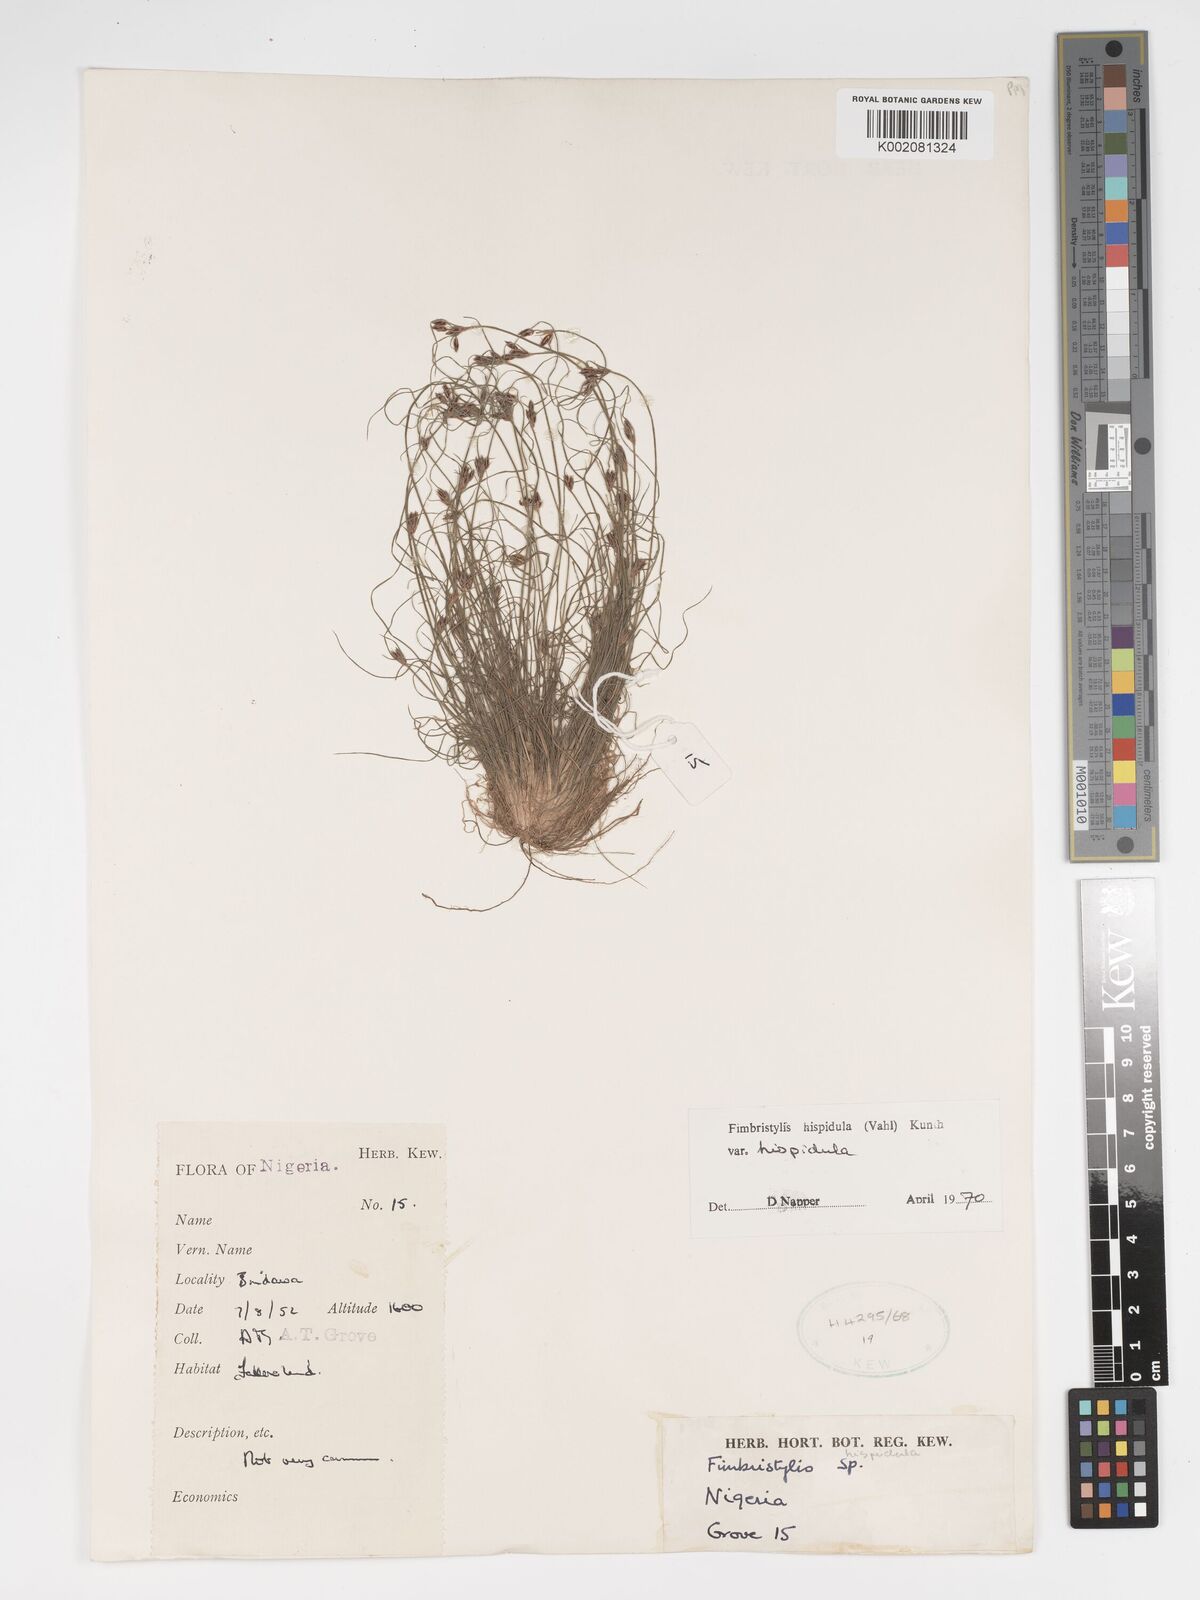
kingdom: Plantae
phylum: Tracheophyta
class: Liliopsida
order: Poales
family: Cyperaceae
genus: Bulbostylis
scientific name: Bulbostylis hispidula
